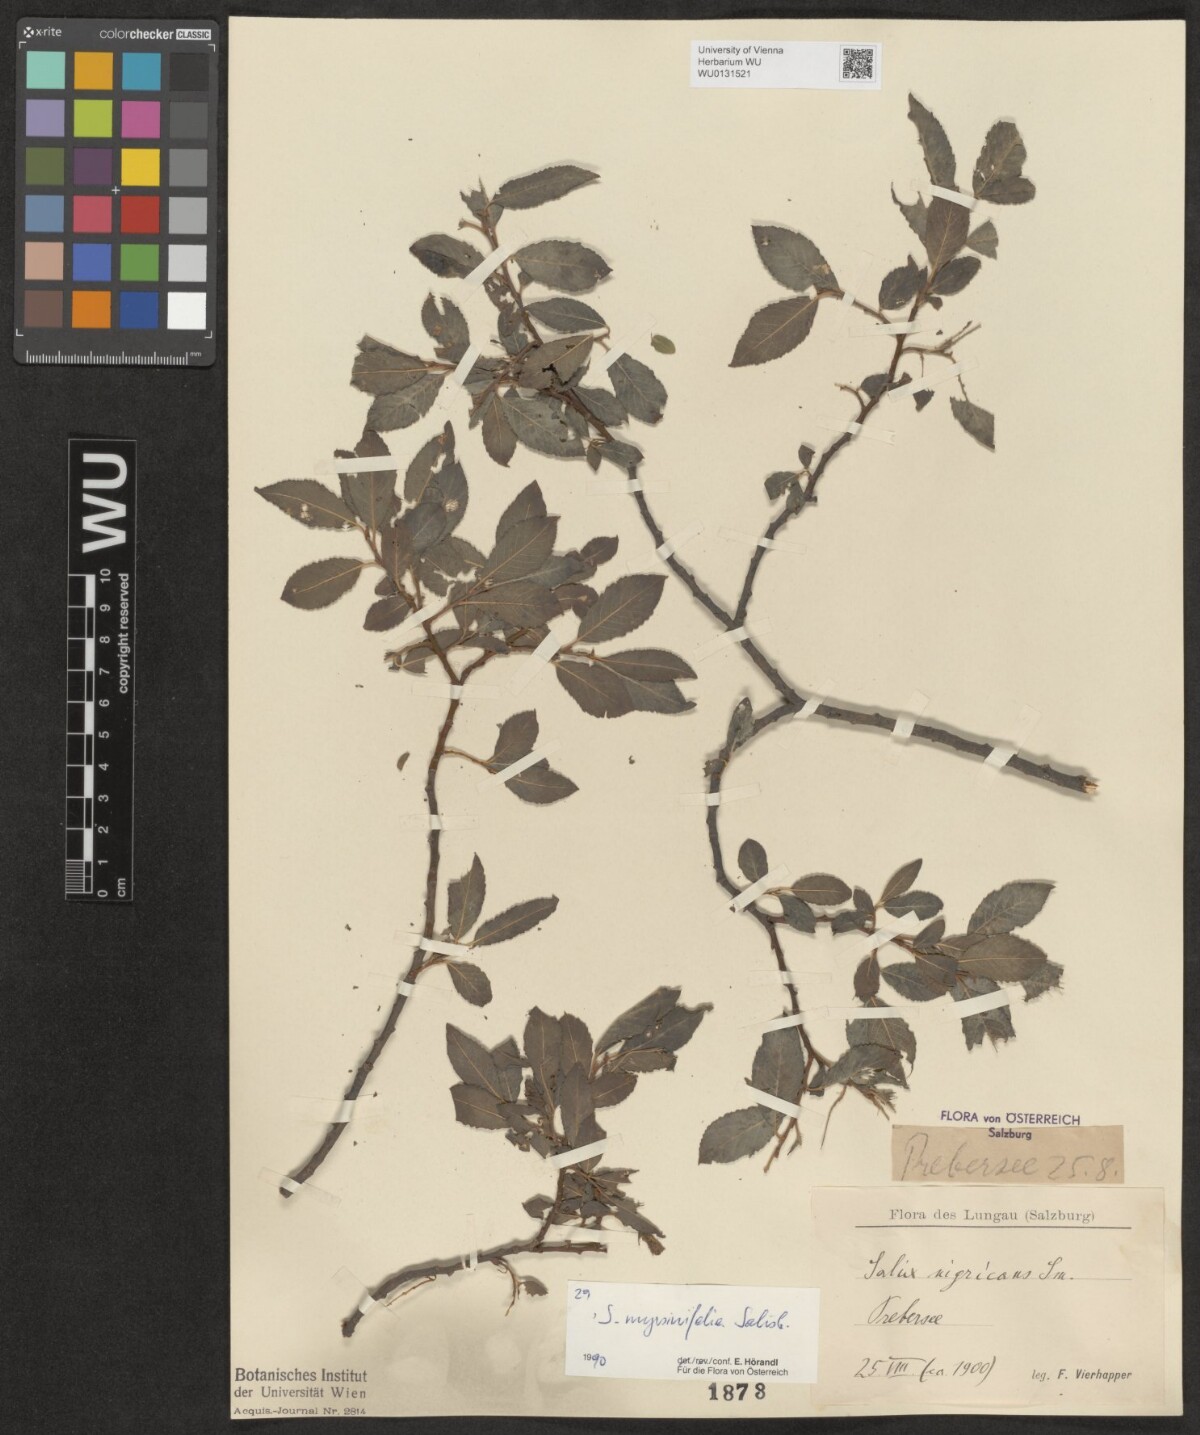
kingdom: Plantae
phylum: Tracheophyta
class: Magnoliopsida
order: Malpighiales
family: Salicaceae
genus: Salix
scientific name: Salix myrsinifolia
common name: Dark-leaved willow
